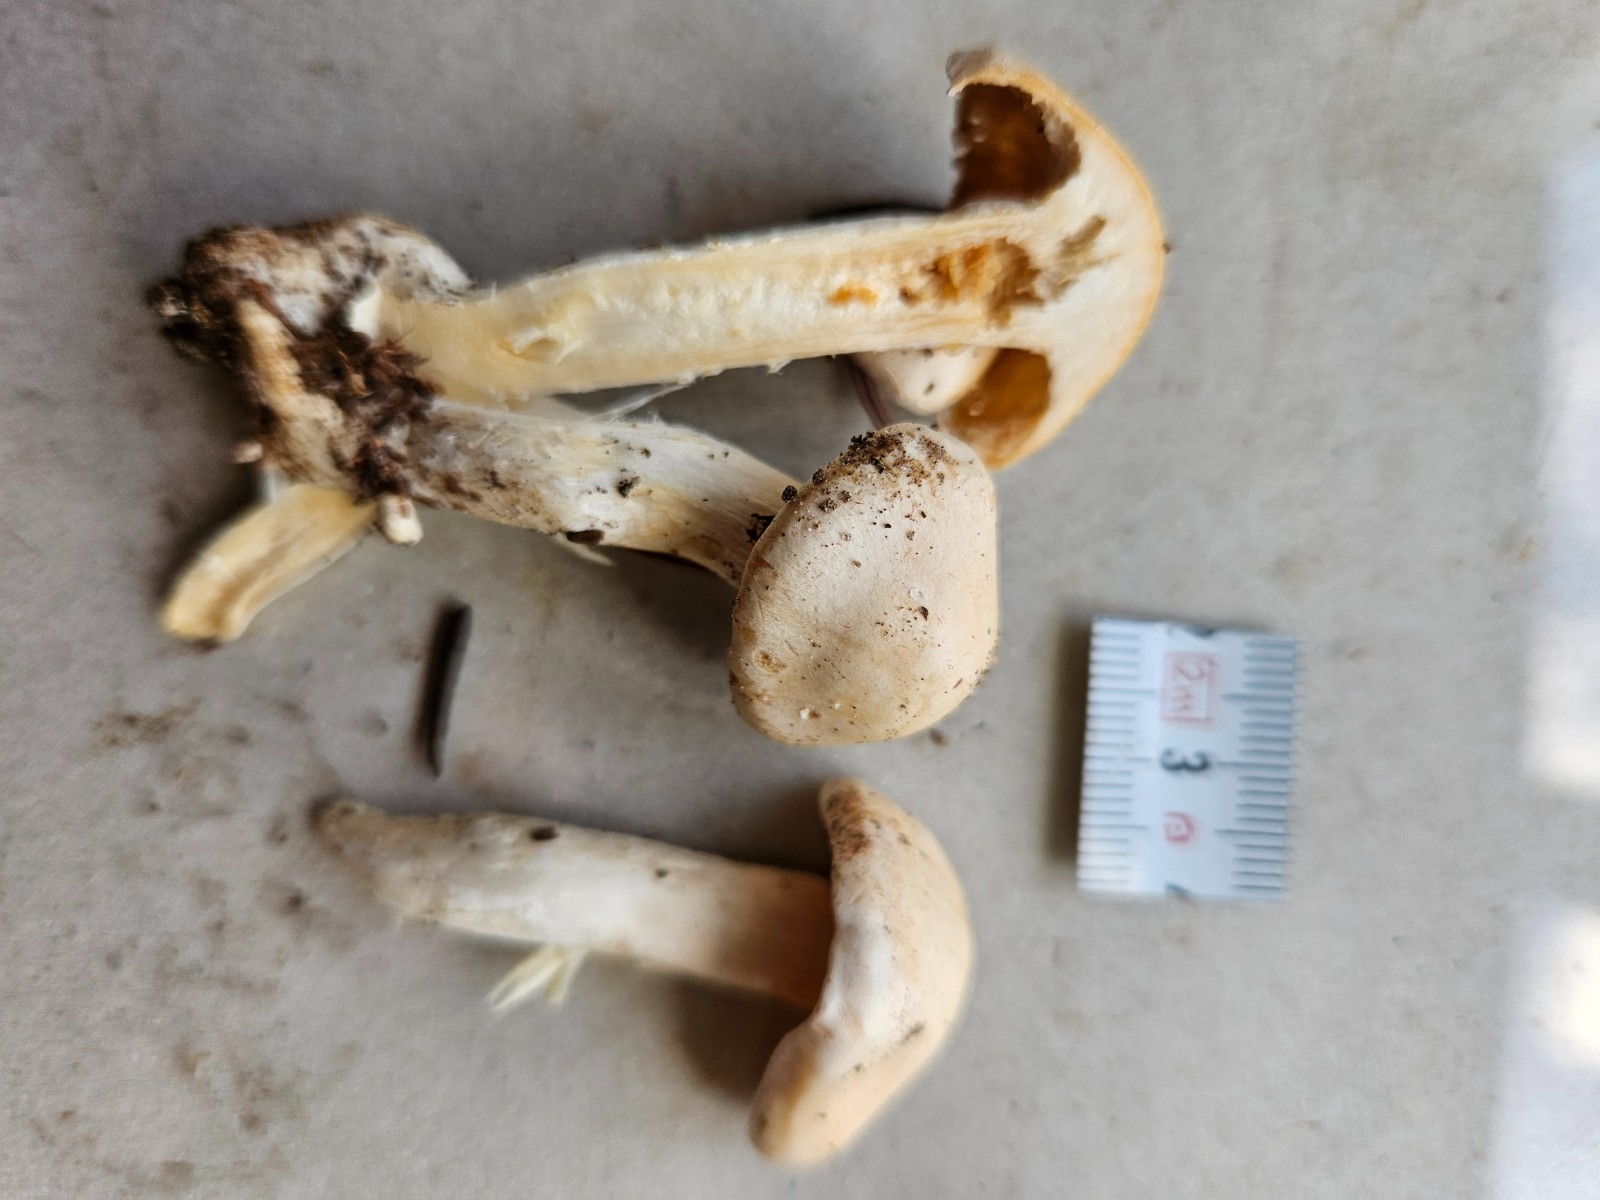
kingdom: Fungi
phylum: Basidiomycota
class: Agaricomycetes
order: Agaricales
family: Cortinariaceae
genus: Thaxterogaster
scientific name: Thaxterogaster
